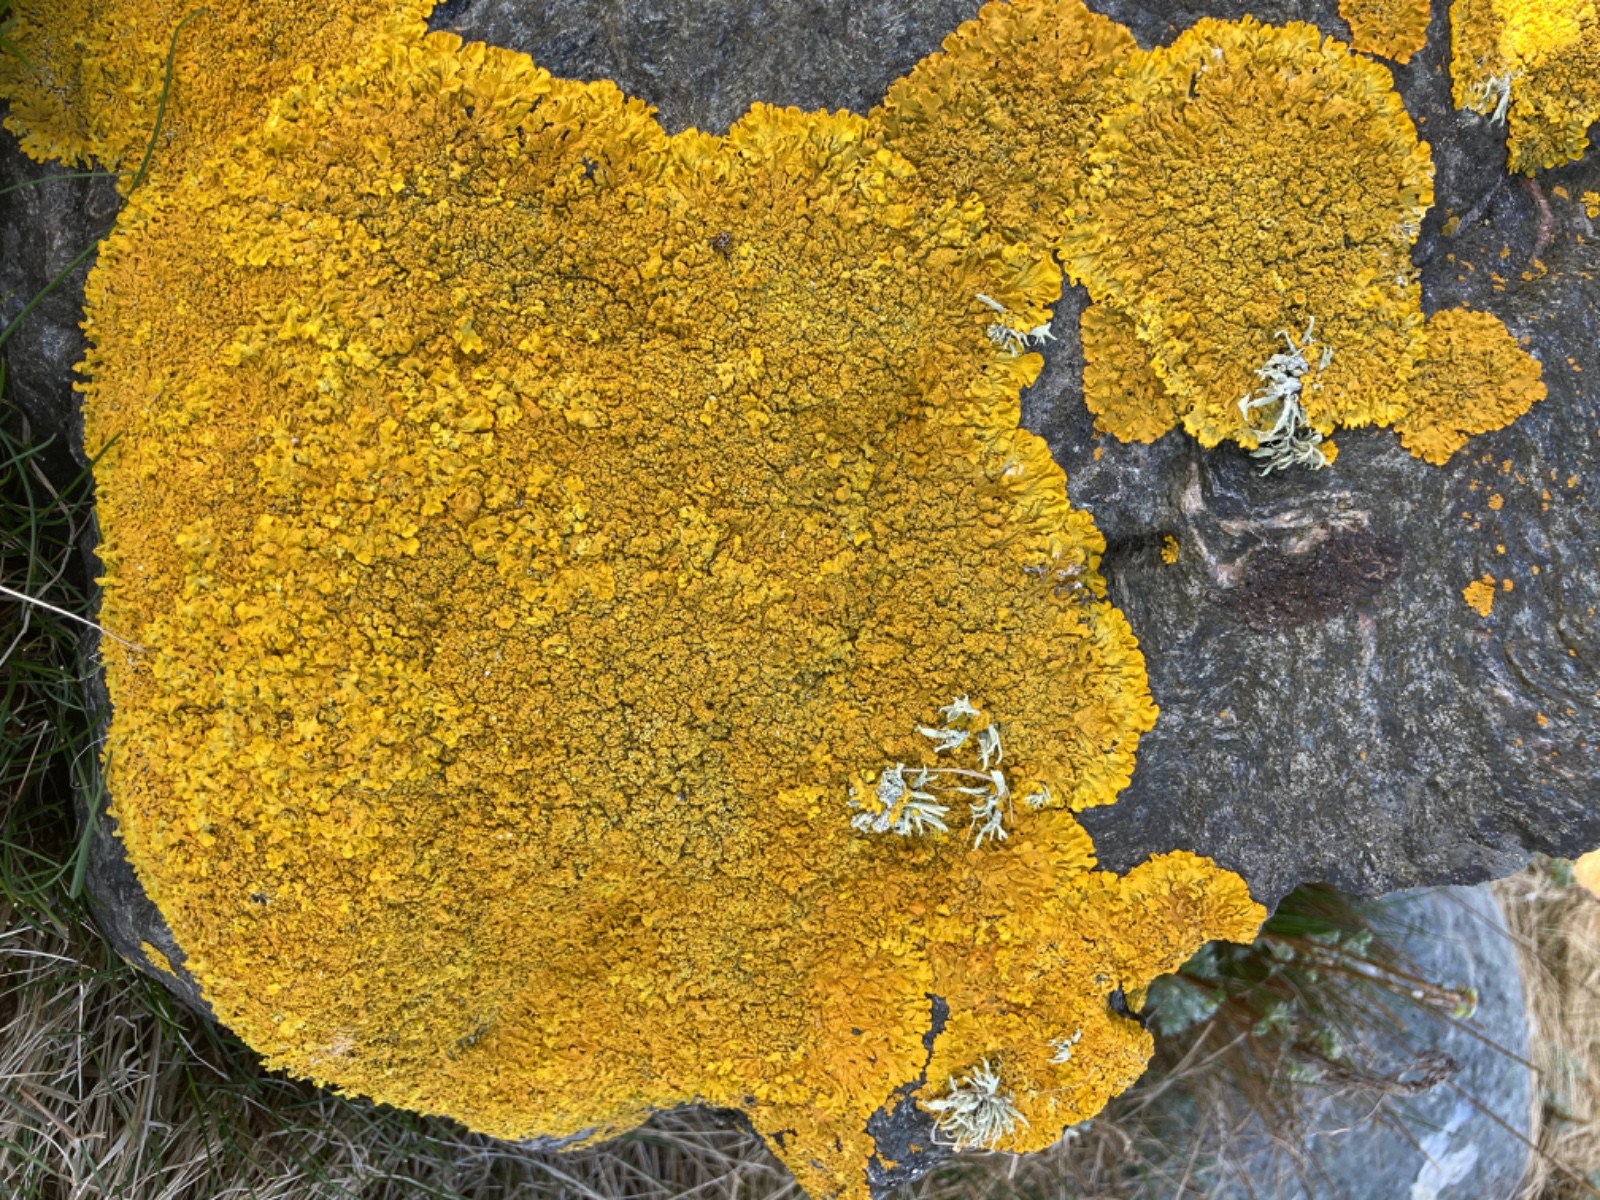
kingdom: Fungi
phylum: Ascomycota
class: Lecanoromycetes
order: Teloschistales
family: Teloschistaceae
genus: Xanthoria
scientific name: Xanthoria calcicola
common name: vortet væggelav
